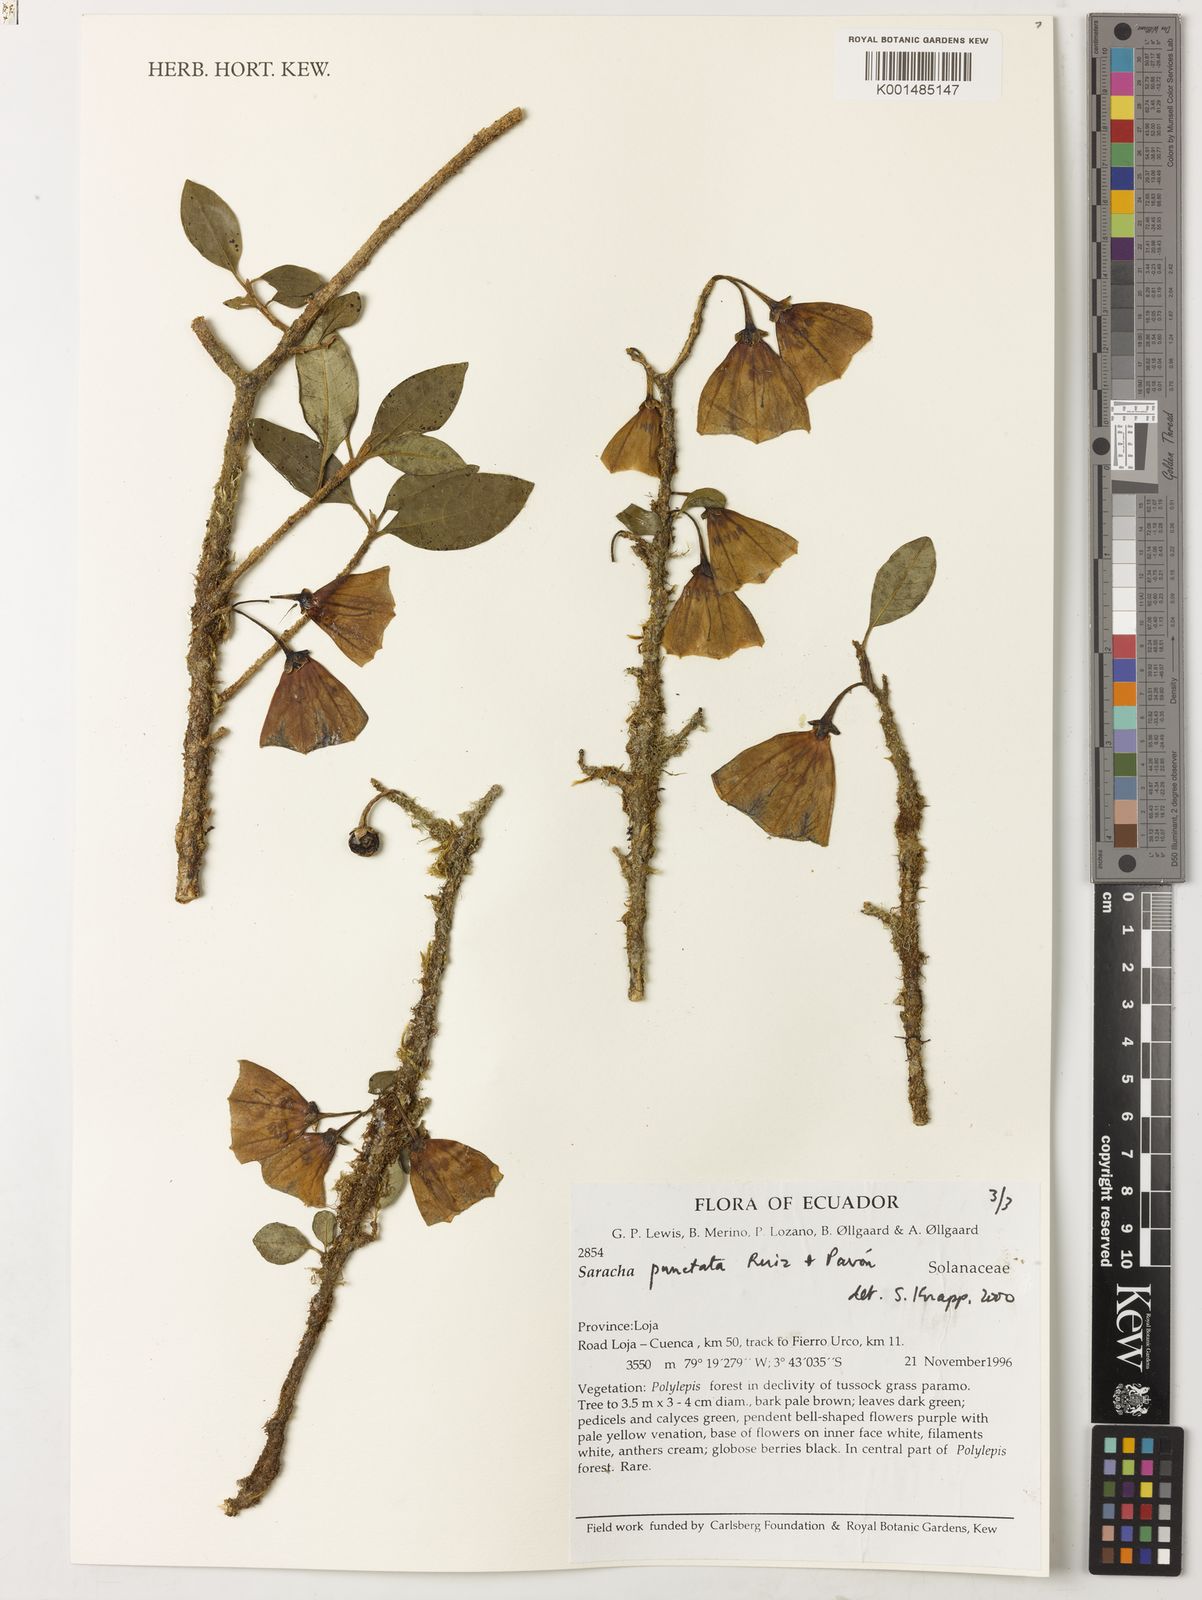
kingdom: Plantae
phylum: Tracheophyta
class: Magnoliopsida
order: Solanales
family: Solanaceae
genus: Saracha
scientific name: Saracha punctata
